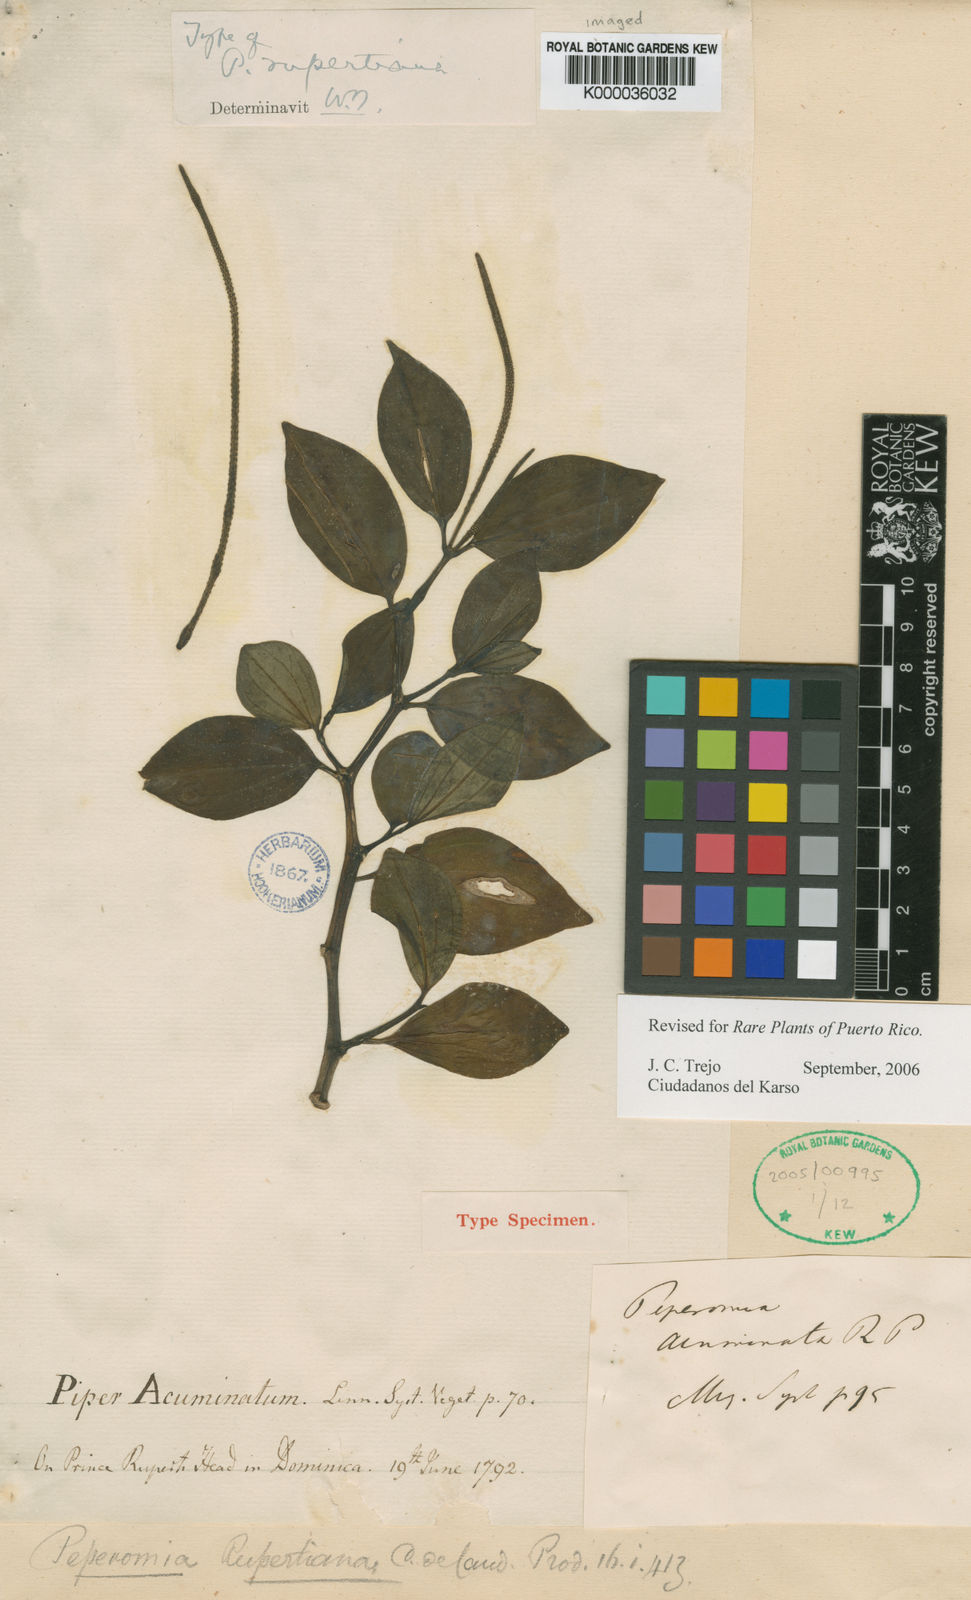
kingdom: Plantae
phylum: Tracheophyta
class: Magnoliopsida
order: Piperales
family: Piperaceae
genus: Peperomia
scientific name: Peperomia myrtifolia
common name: Myrtleleaf peperomia
